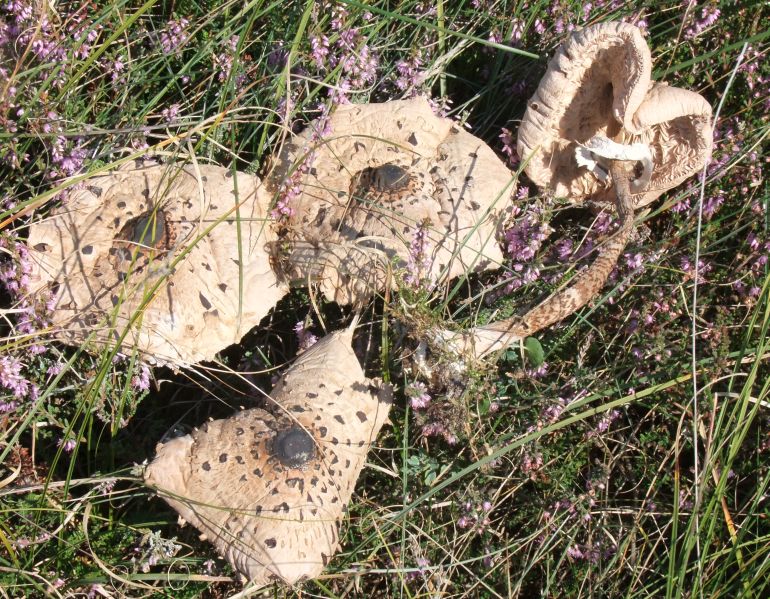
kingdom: Fungi
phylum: Basidiomycota
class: Agaricomycetes
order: Agaricales
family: Agaricaceae
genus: Macrolepiota
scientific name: Macrolepiota procera
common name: stor kæmpeparasolhat
